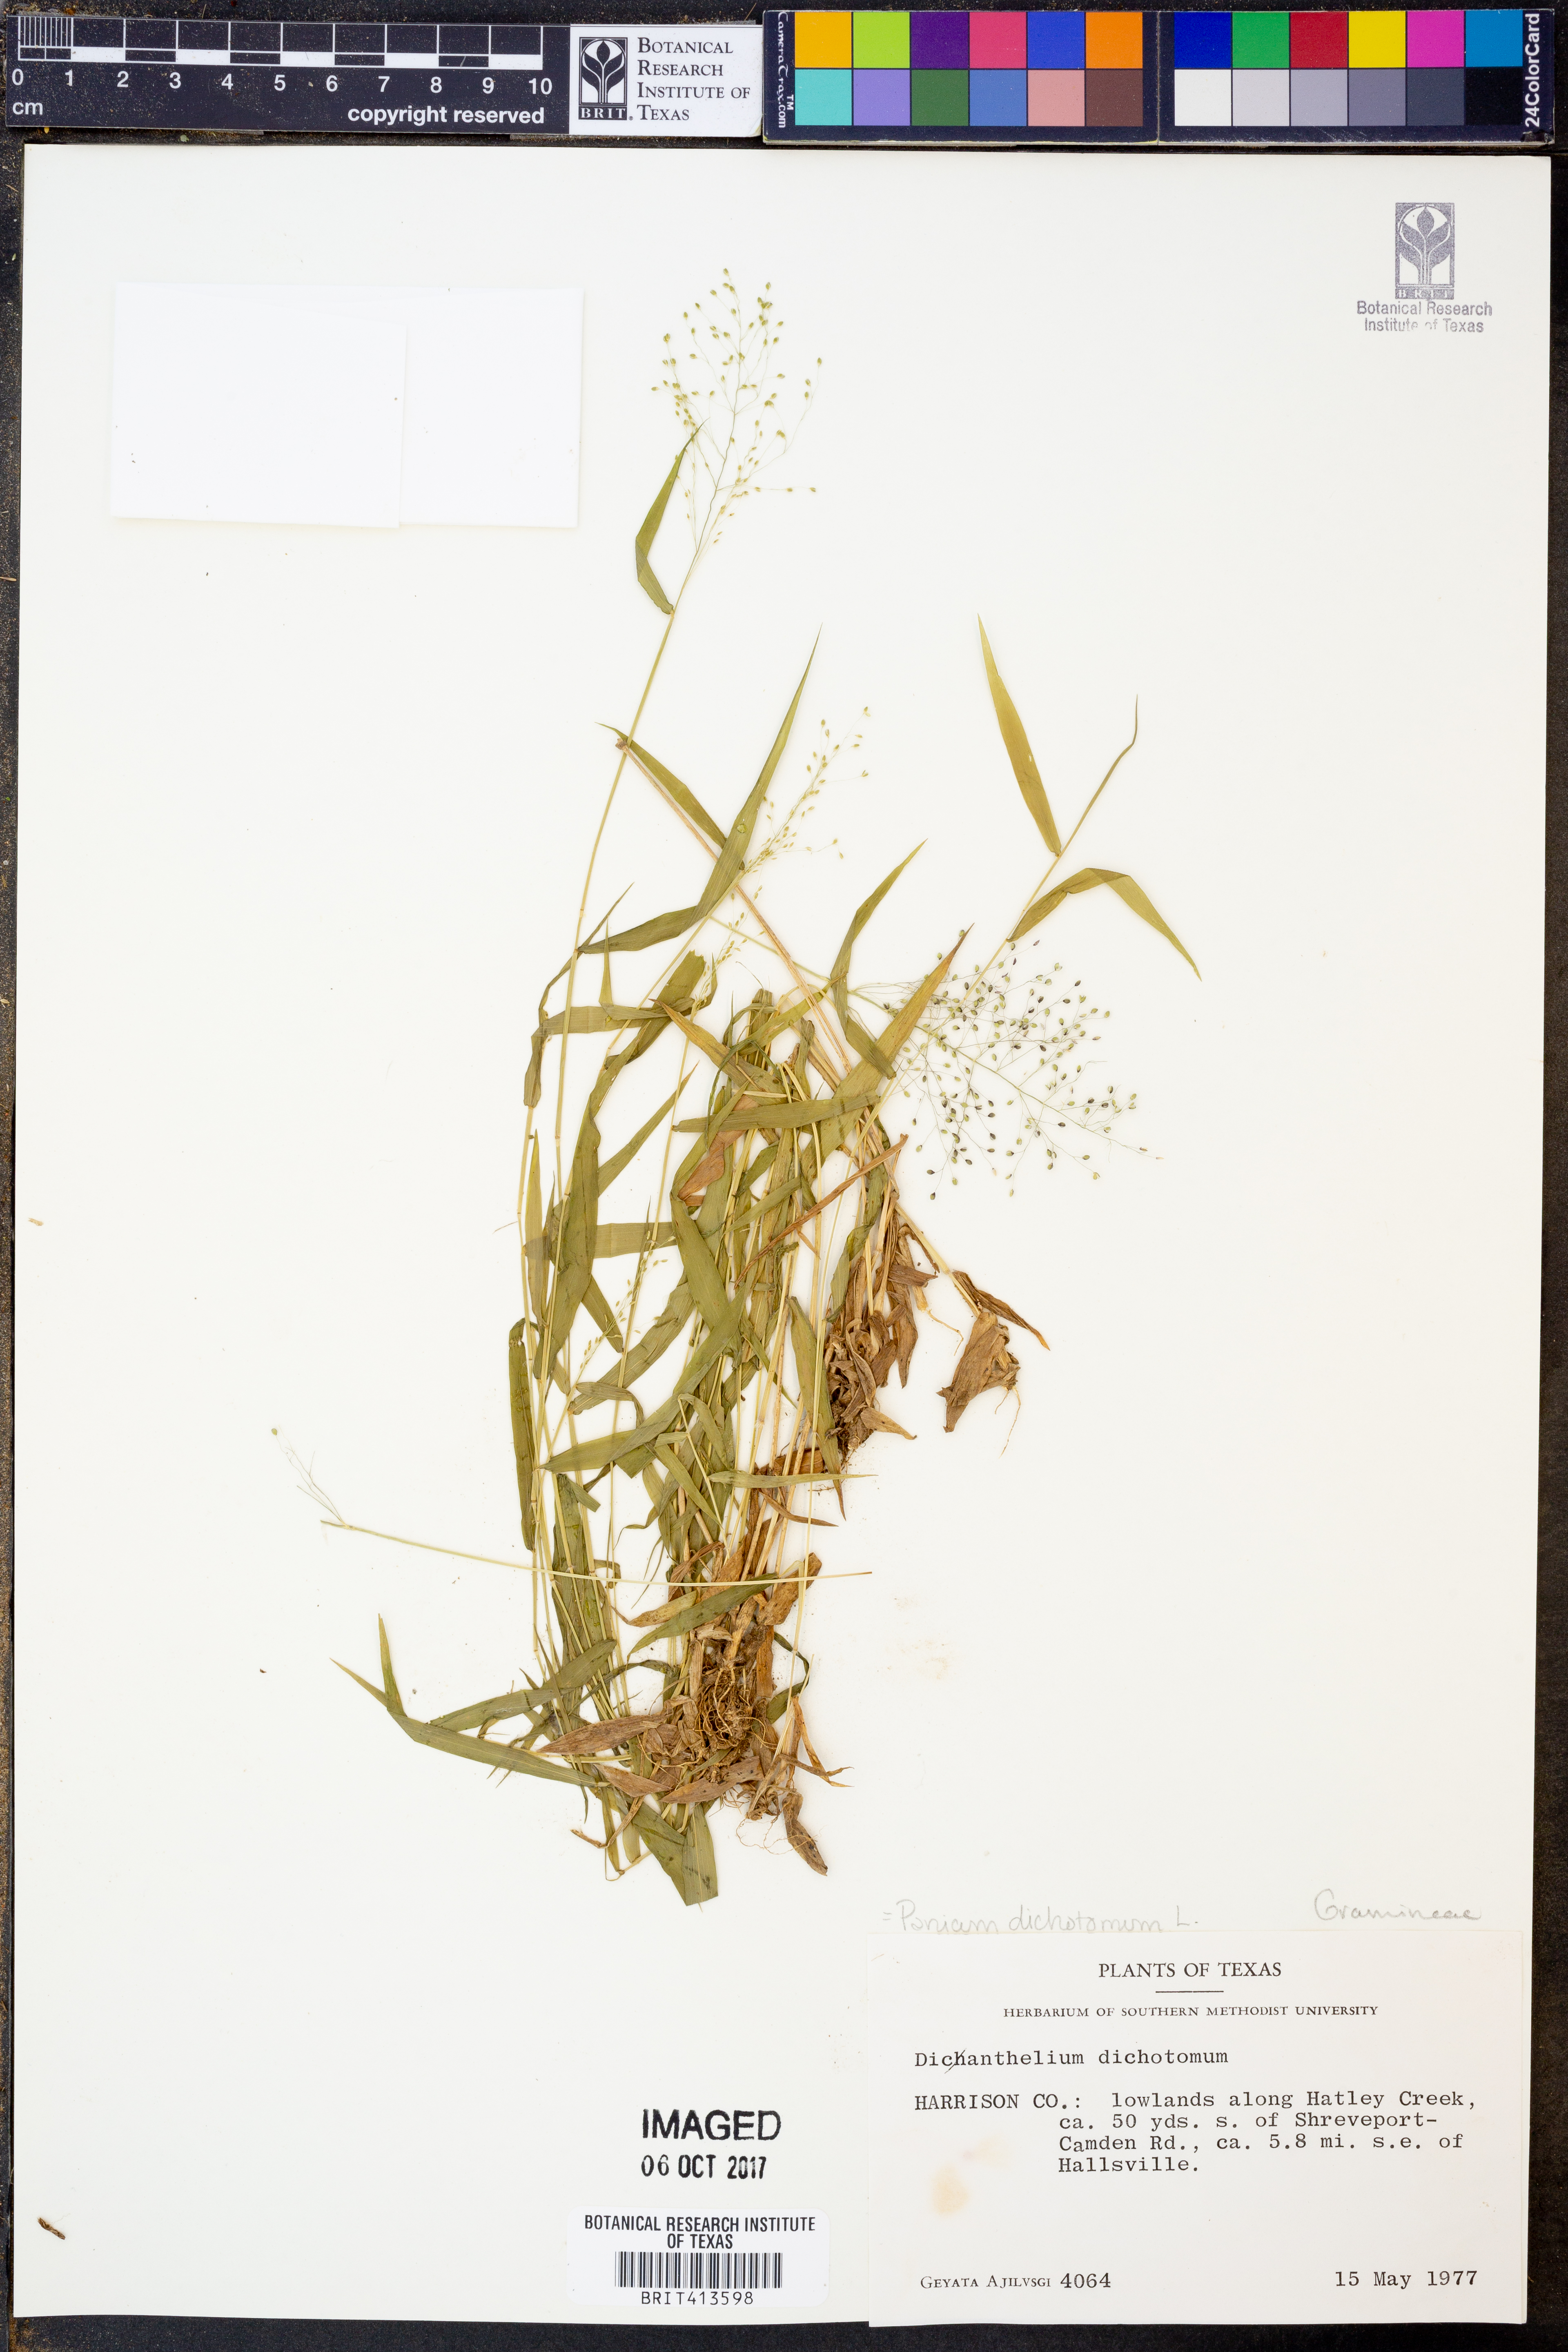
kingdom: Plantae
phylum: Tracheophyta
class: Liliopsida
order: Poales
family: Poaceae
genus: Dichanthelium
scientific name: Dichanthelium dichotomum
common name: Cypress panicgrass
